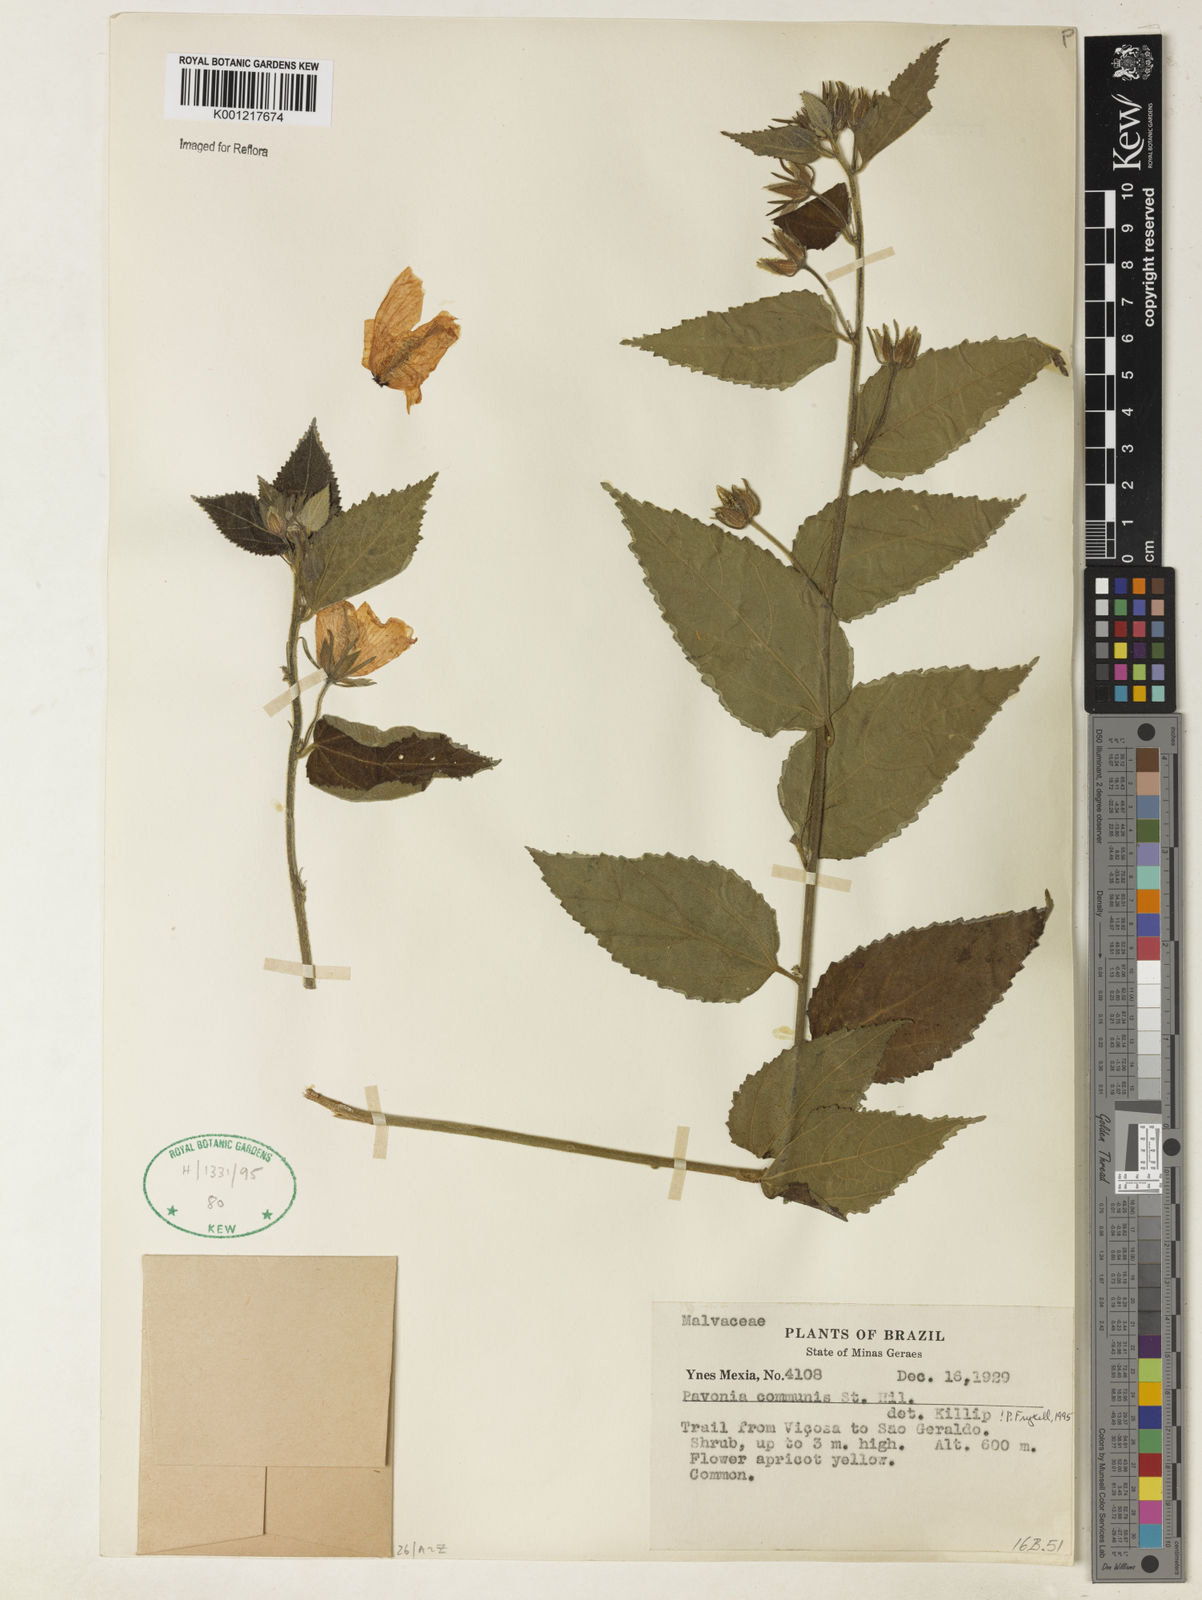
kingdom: Plantae
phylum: Tracheophyta
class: Magnoliopsida
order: Malvales
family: Malvaceae
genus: Pavonia
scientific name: Pavonia communis
